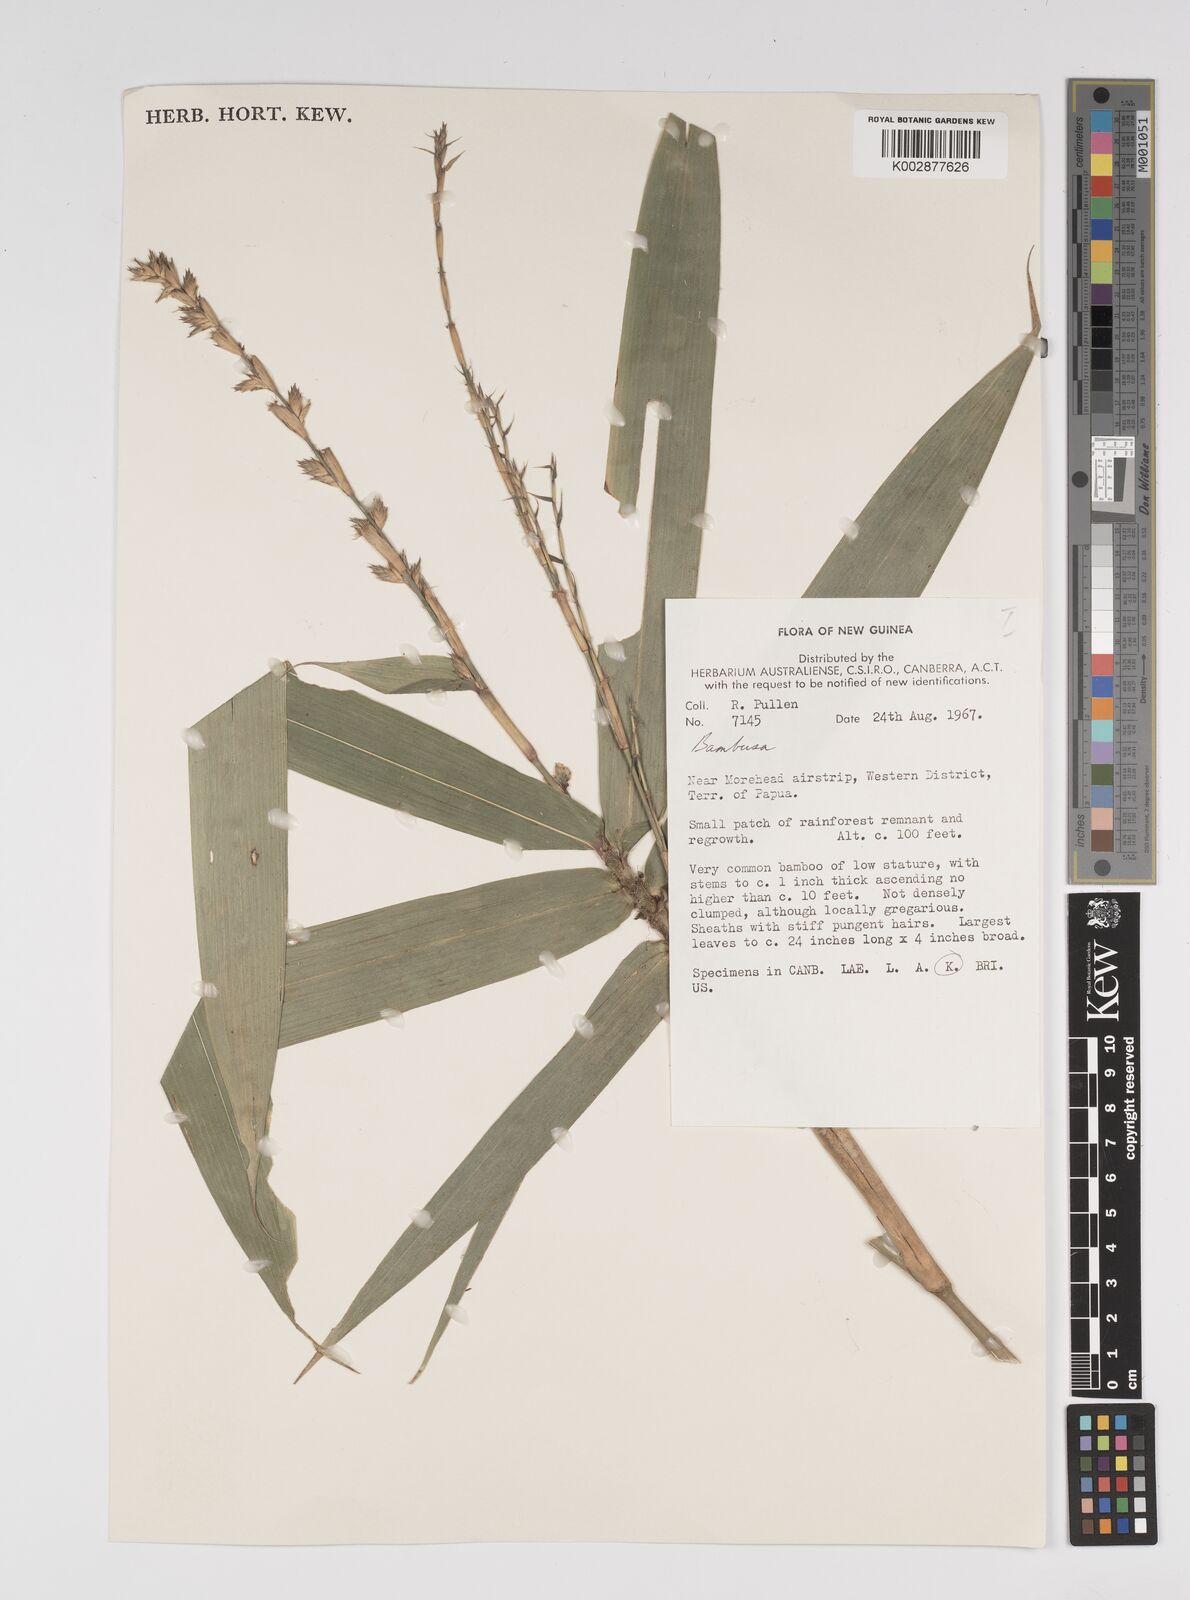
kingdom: Plantae
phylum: Tracheophyta
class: Liliopsida
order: Poales
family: Poaceae
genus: Dendrocalamus
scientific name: Dendrocalamus strictus
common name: Male bamboo
